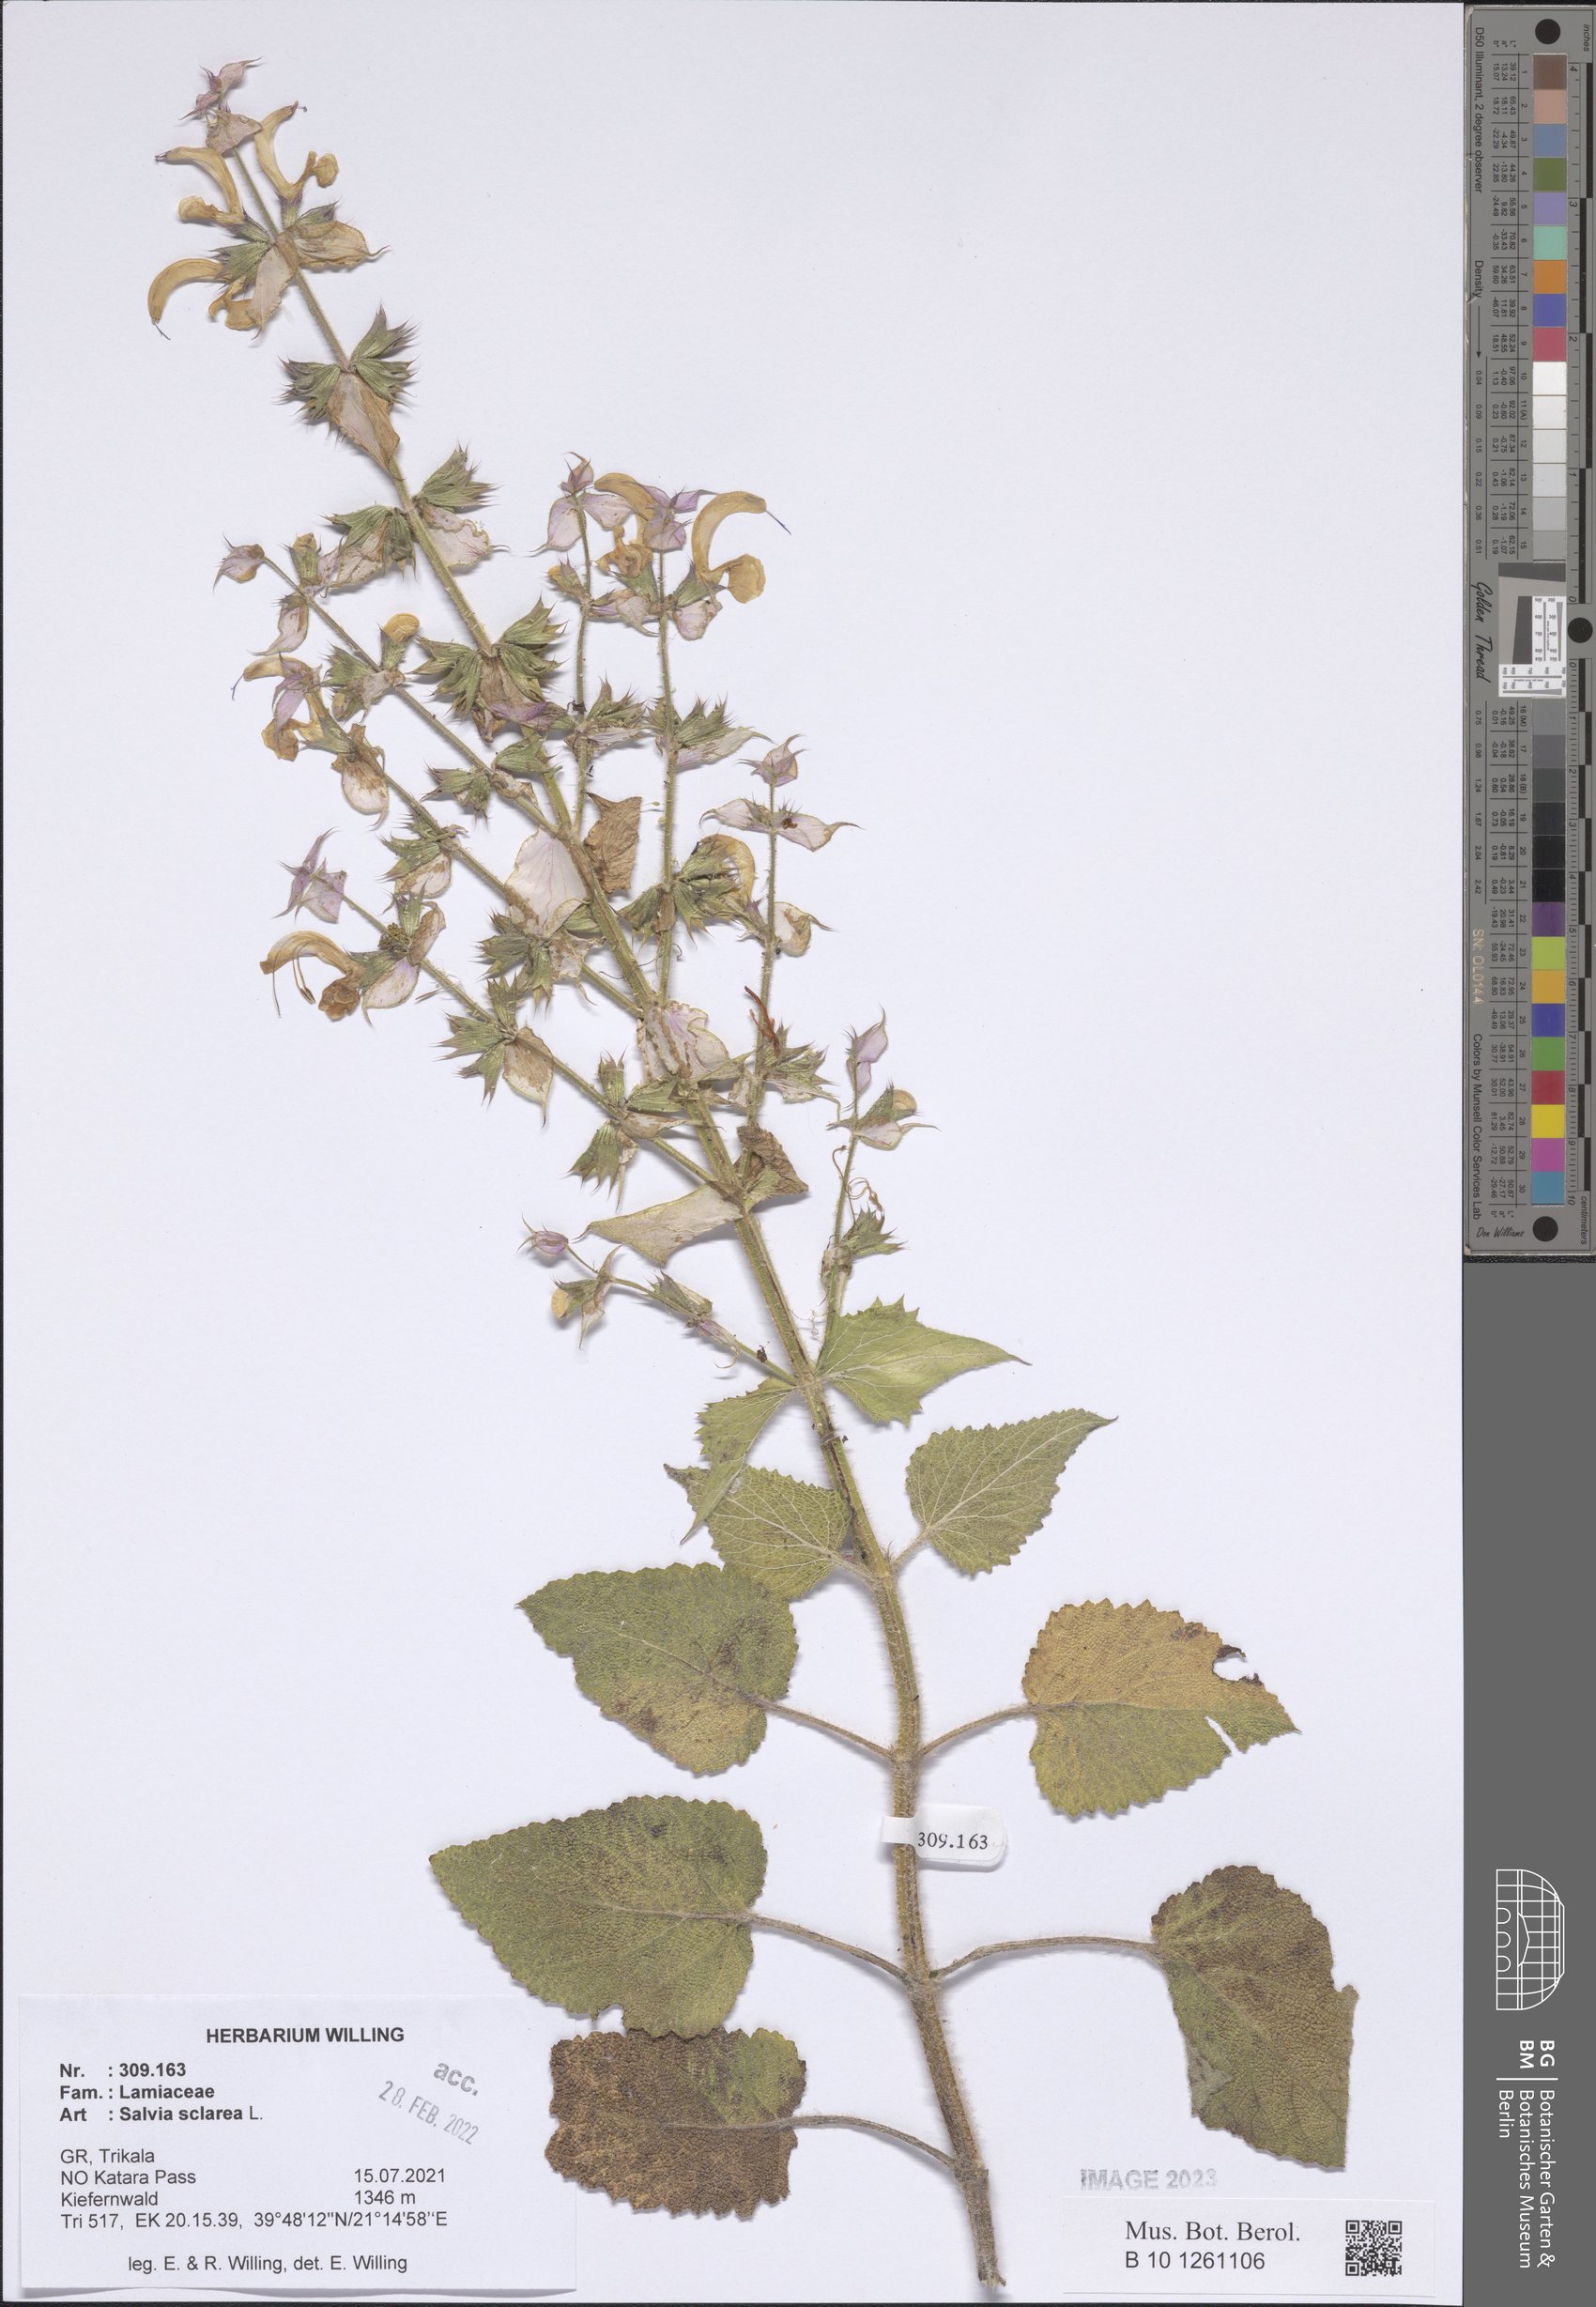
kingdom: Plantae
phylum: Tracheophyta
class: Magnoliopsida
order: Lamiales
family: Lamiaceae
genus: Salvia
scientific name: Salvia sclarea
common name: Clary
